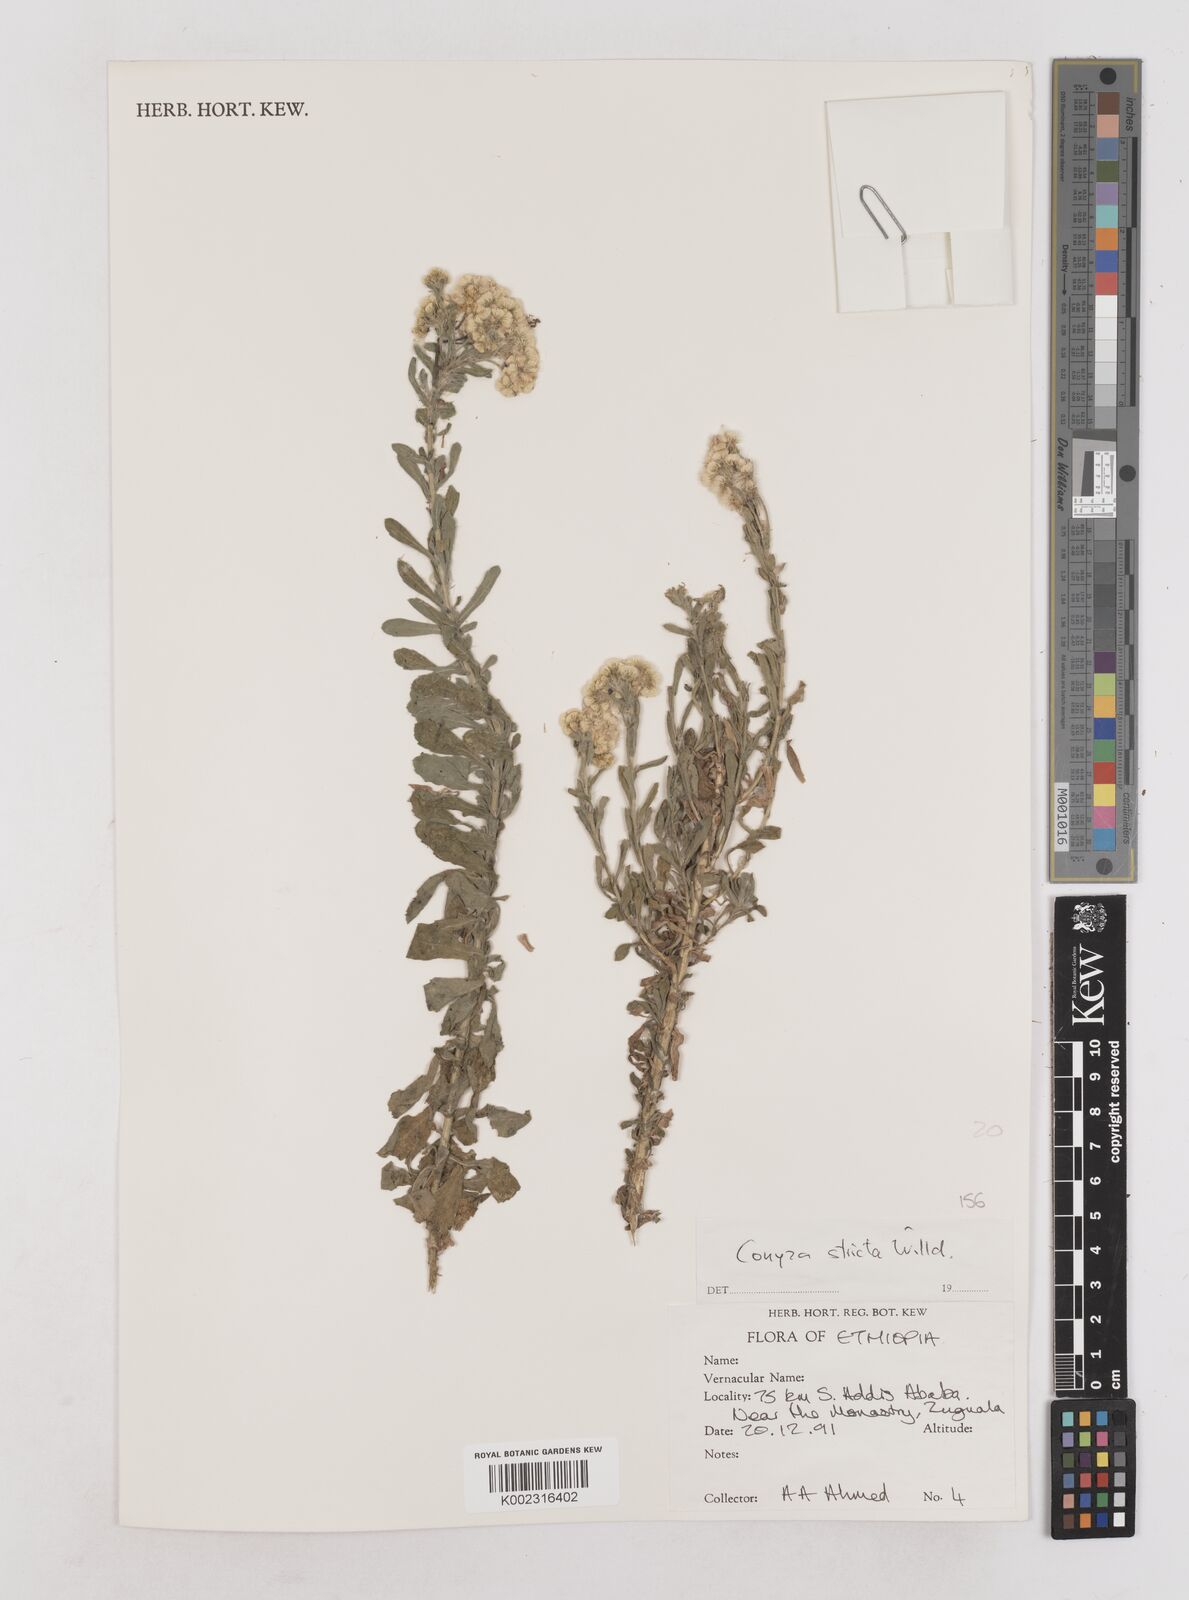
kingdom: Plantae
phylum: Tracheophyta
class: Magnoliopsida
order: Asterales
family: Asteraceae
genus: Nidorella
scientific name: Nidorella triloba
